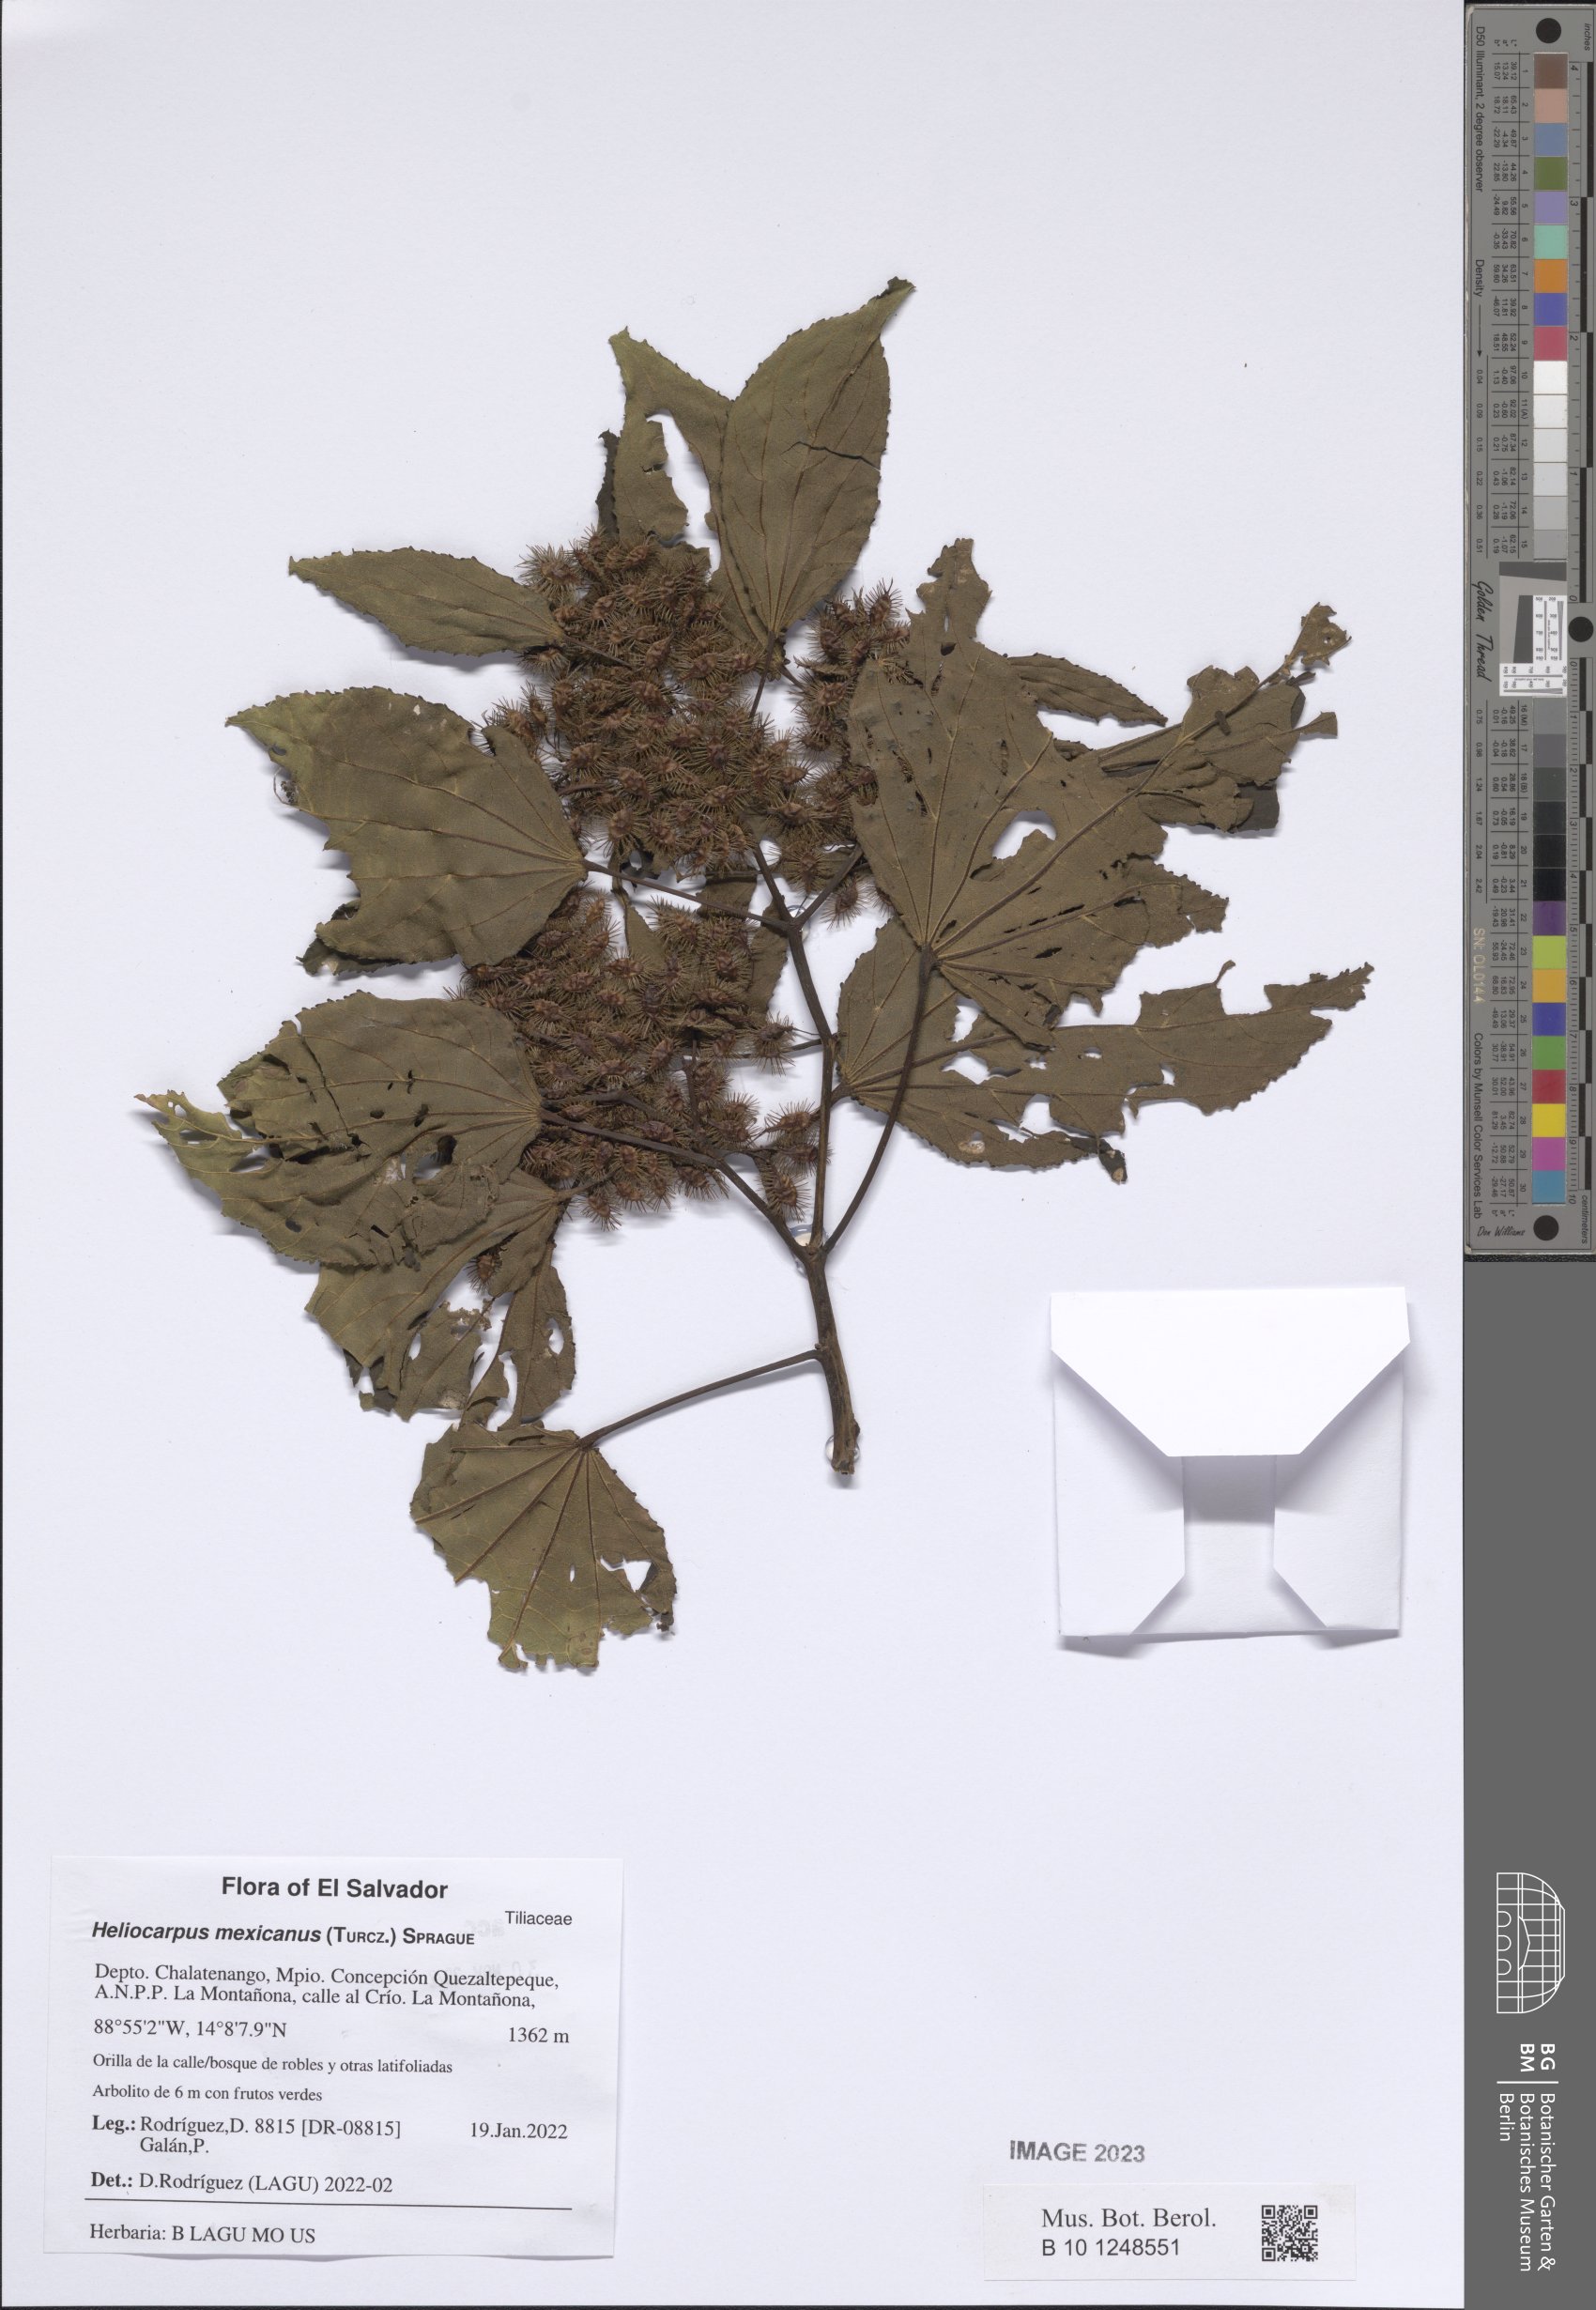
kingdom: Plantae
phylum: Tracheophyta
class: Magnoliopsida
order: Malvales
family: Malvaceae
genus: Heliocarpus
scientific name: Heliocarpus mexicanus
